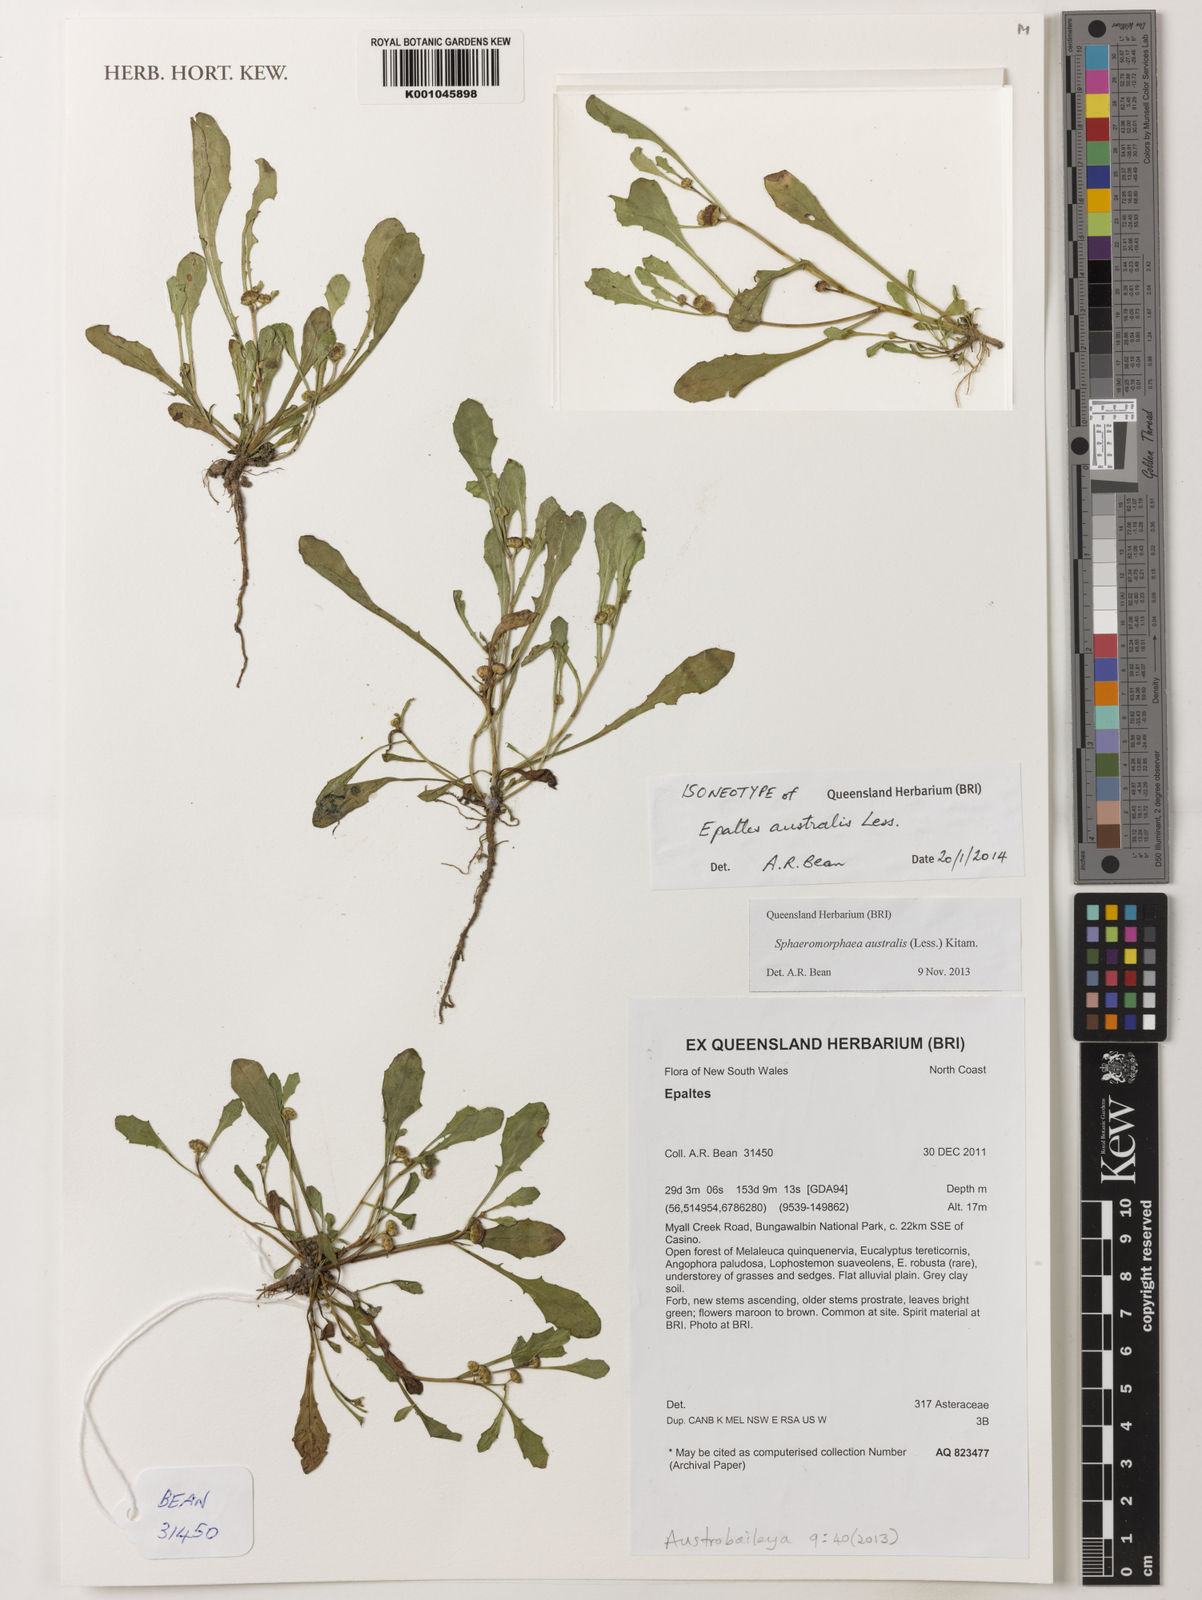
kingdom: Plantae
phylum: Tracheophyta
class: Magnoliopsida
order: Asterales
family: Asteraceae
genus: Sphaeromorphaea
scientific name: Sphaeromorphaea australis
